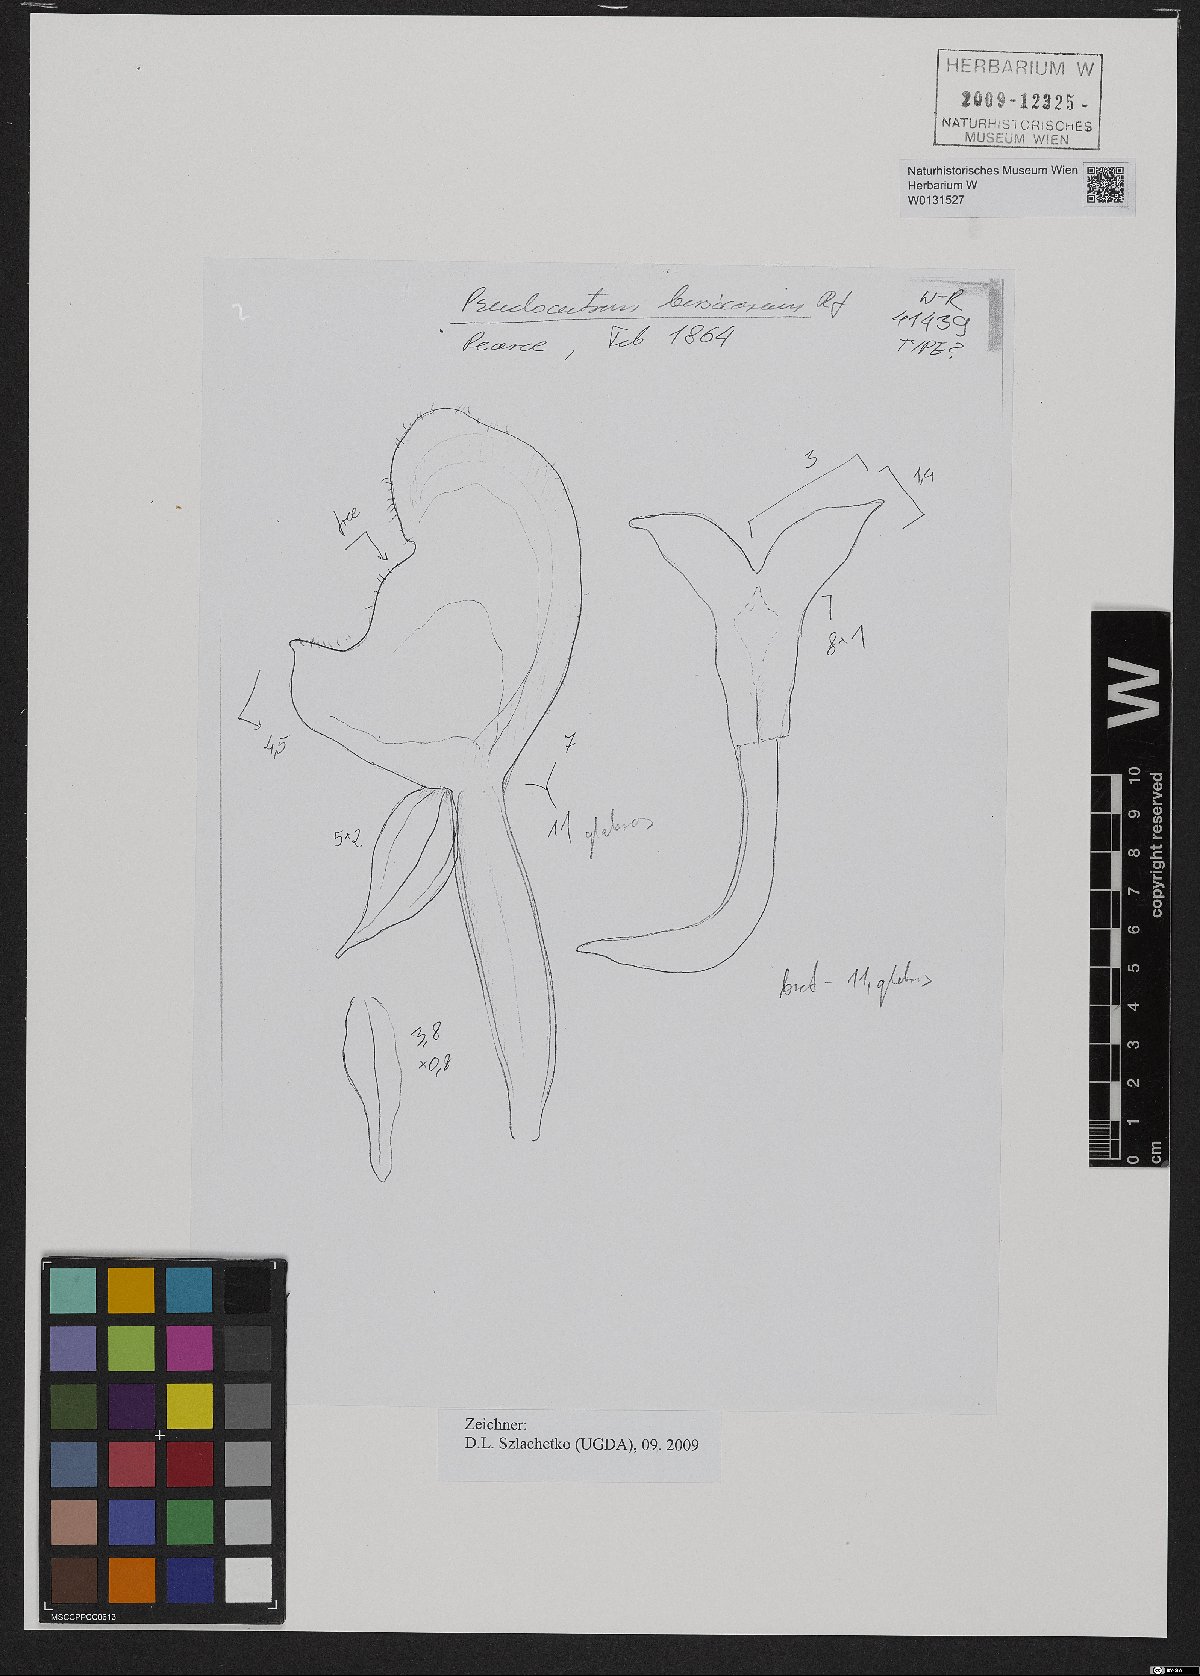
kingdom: Plantae
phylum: Tracheophyta
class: Liliopsida
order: Asparagales
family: Orchidaceae
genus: Pseudocentrum
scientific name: Pseudocentrum bursarium
